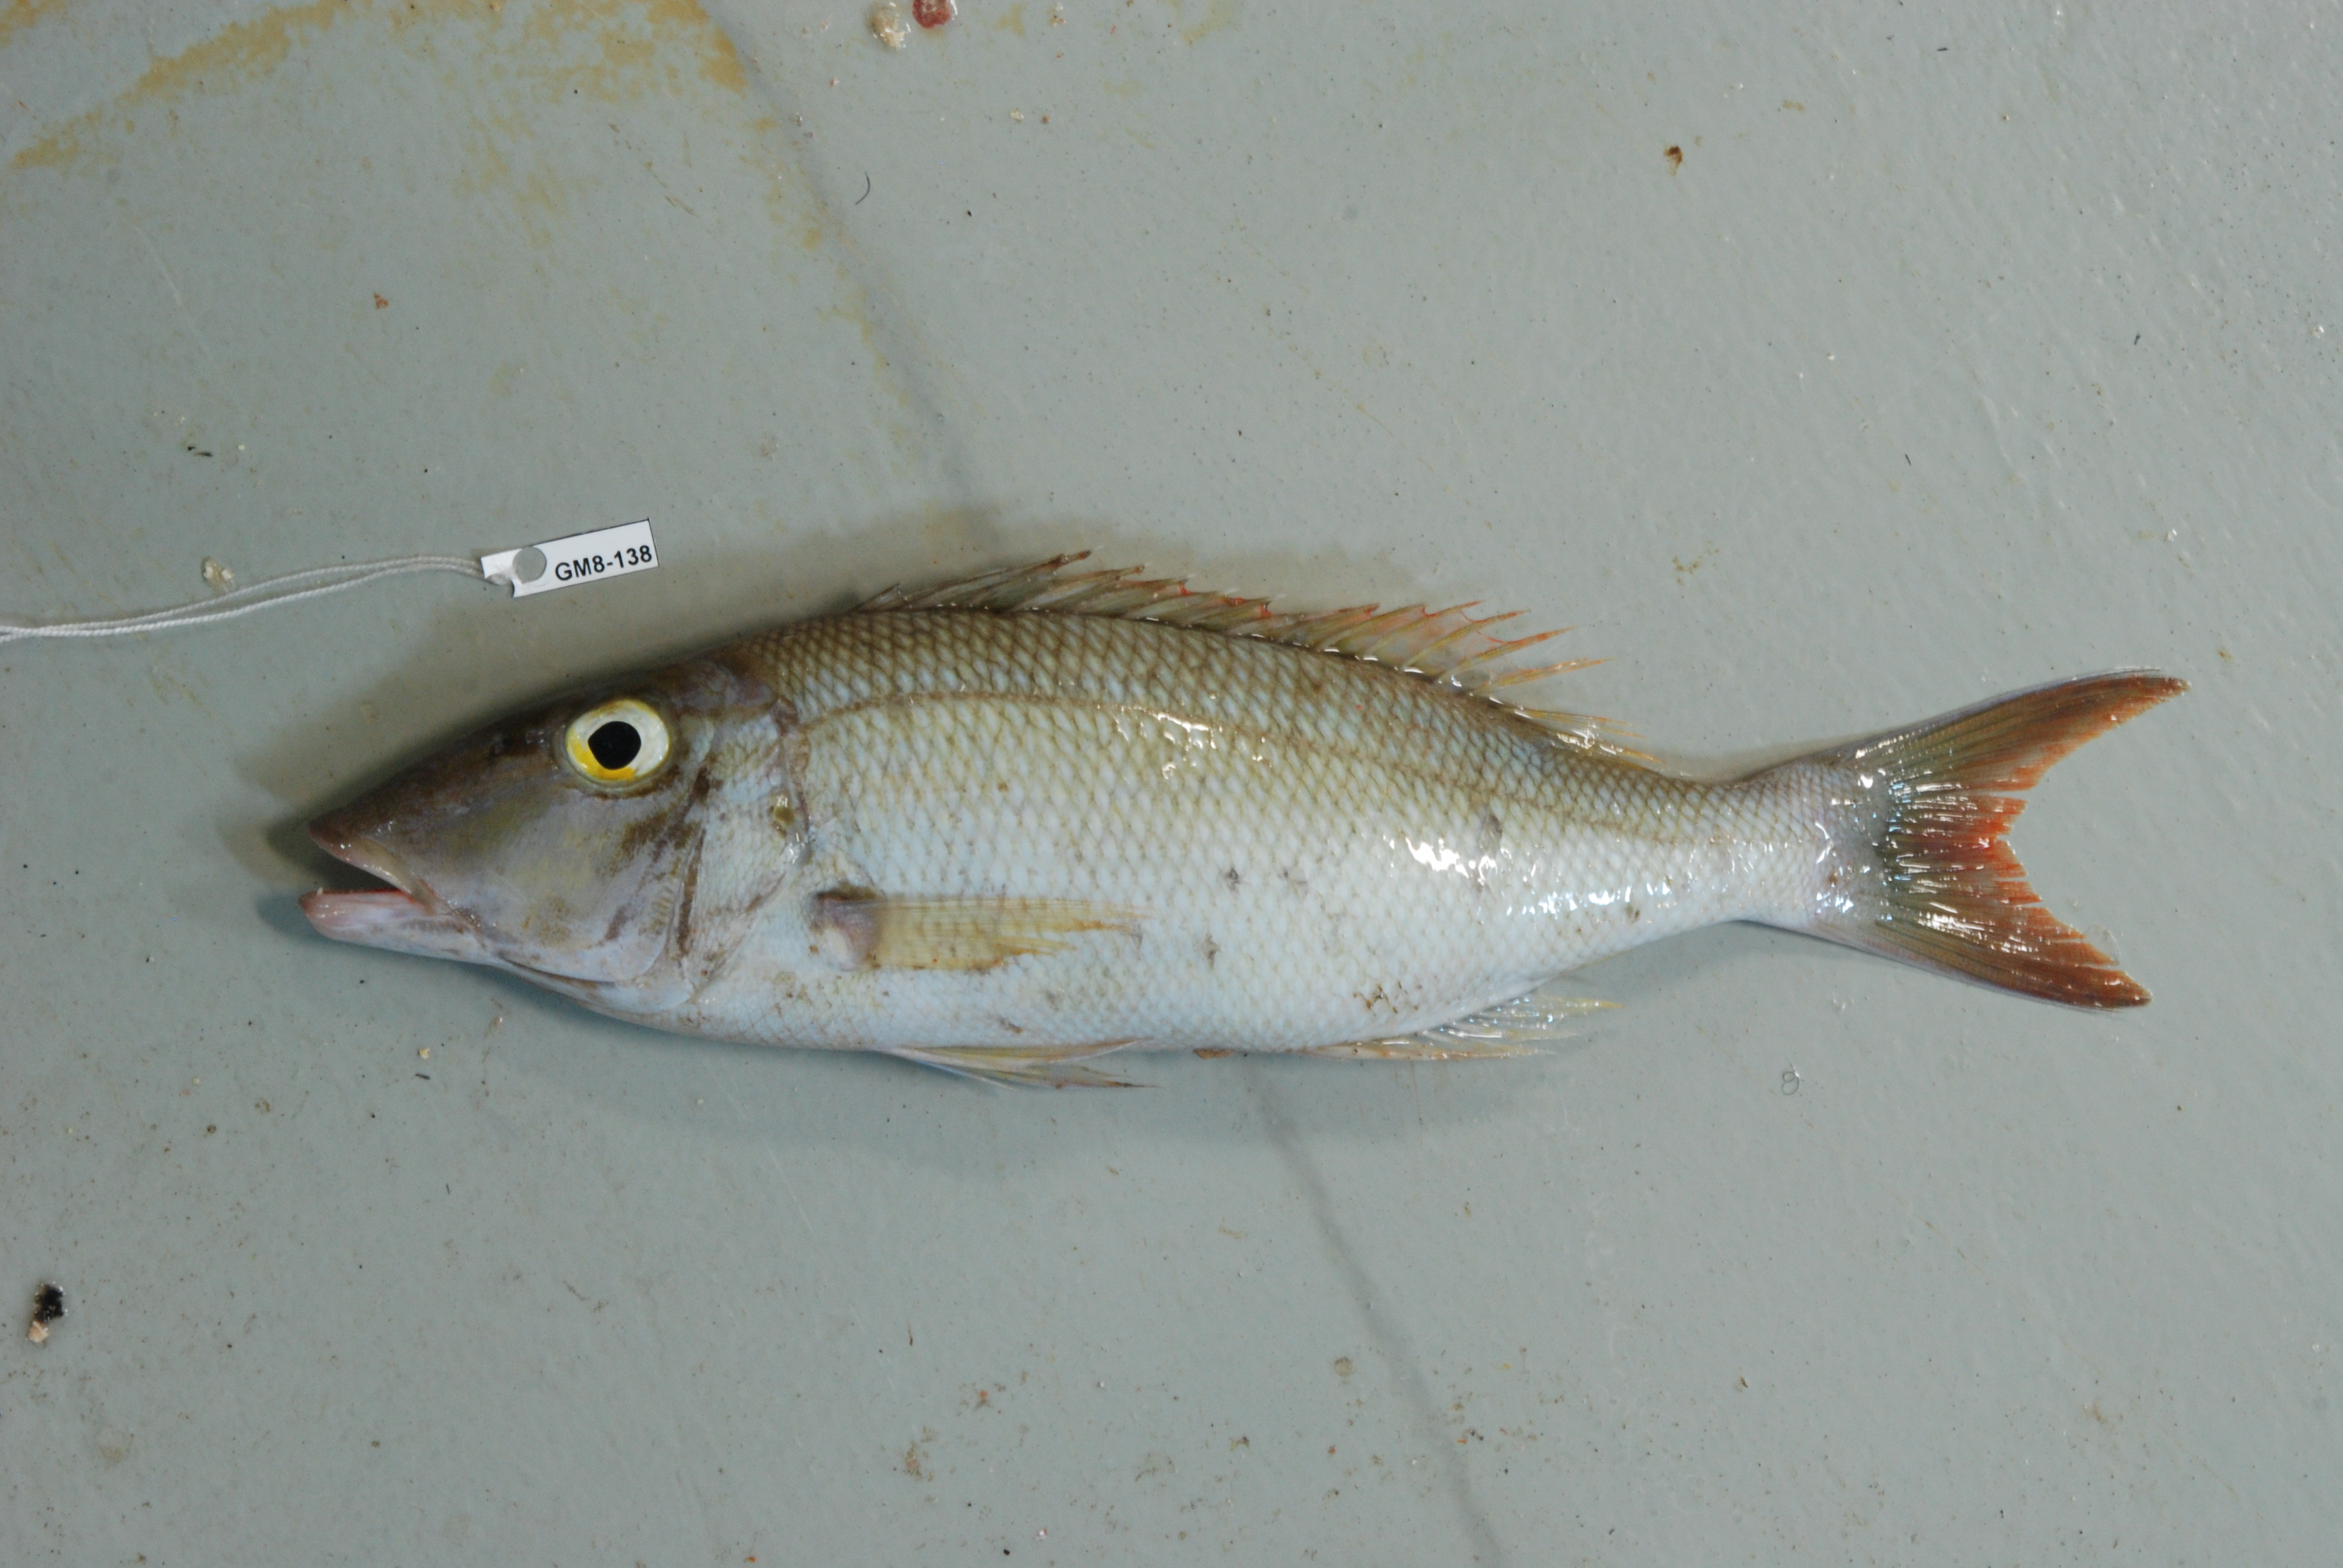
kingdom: Animalia
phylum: Chordata
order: Perciformes
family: Lethrinidae
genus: Lethrinus
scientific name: Lethrinus
